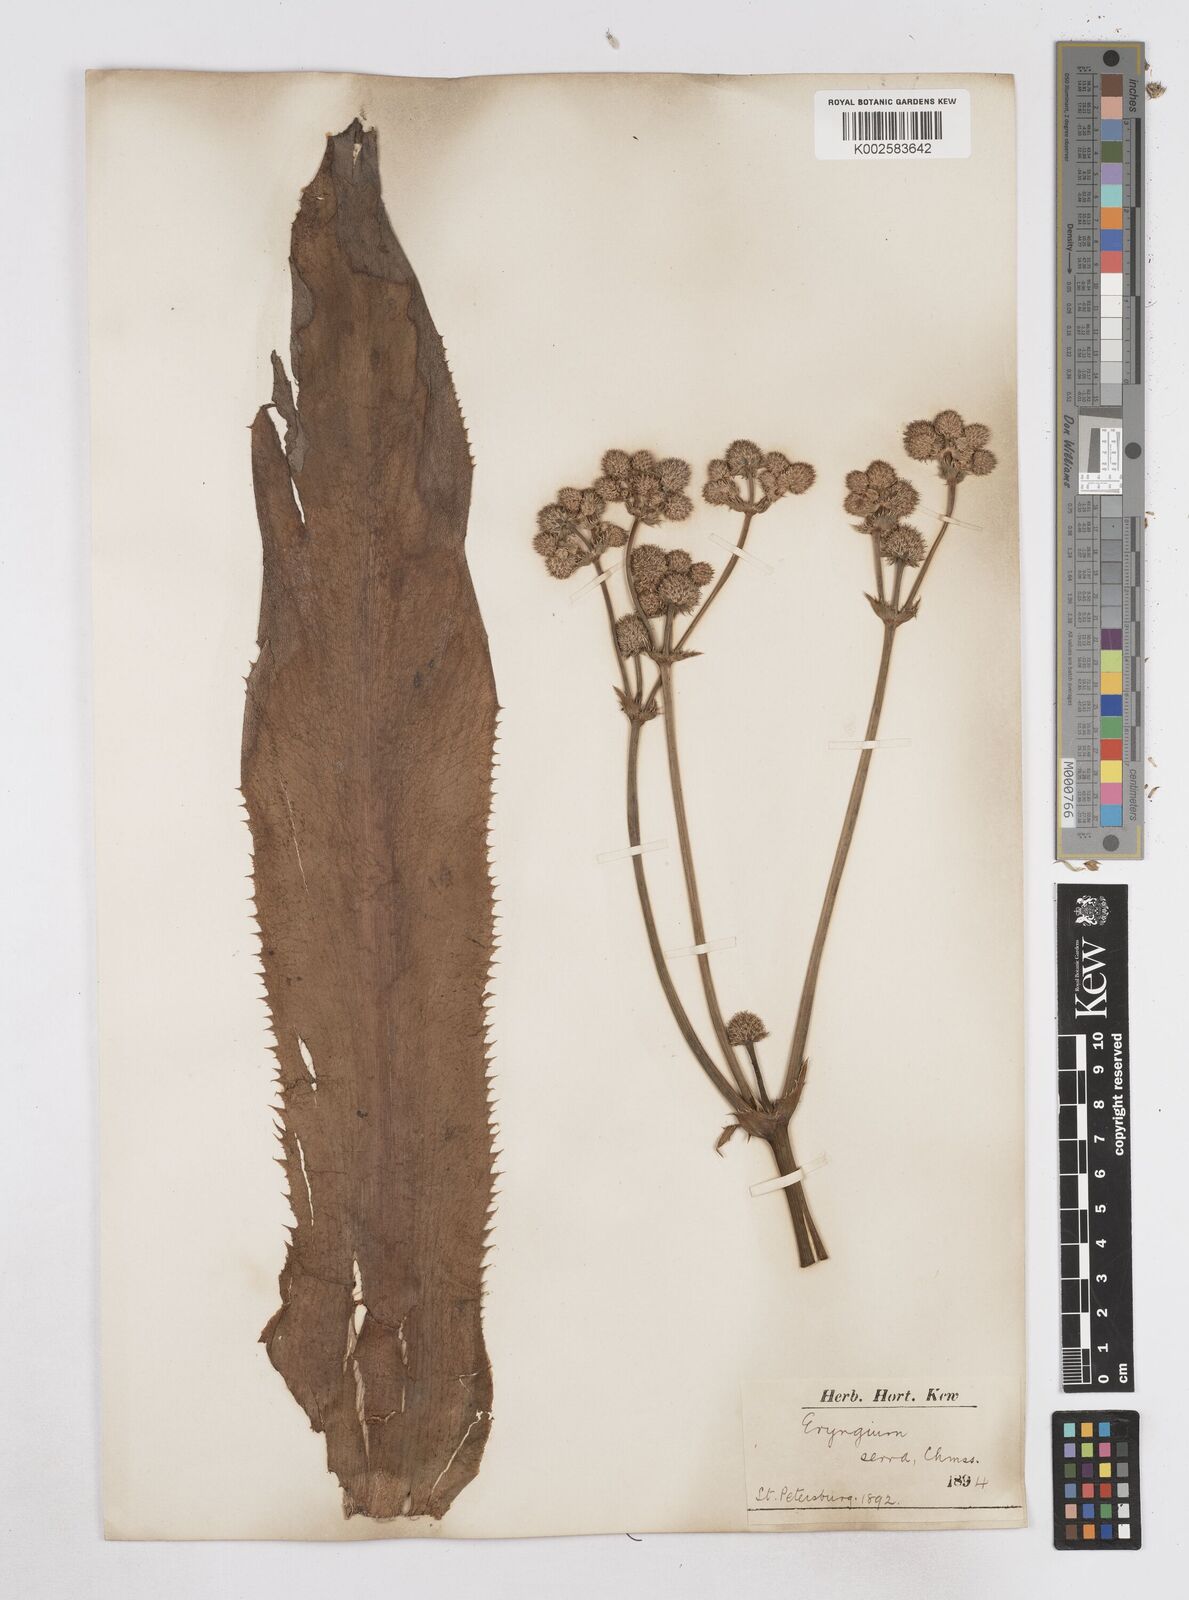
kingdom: Plantae
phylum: Tracheophyta
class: Magnoliopsida
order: Apiales
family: Apiaceae
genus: Eryngium
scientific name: Eryngium serra
